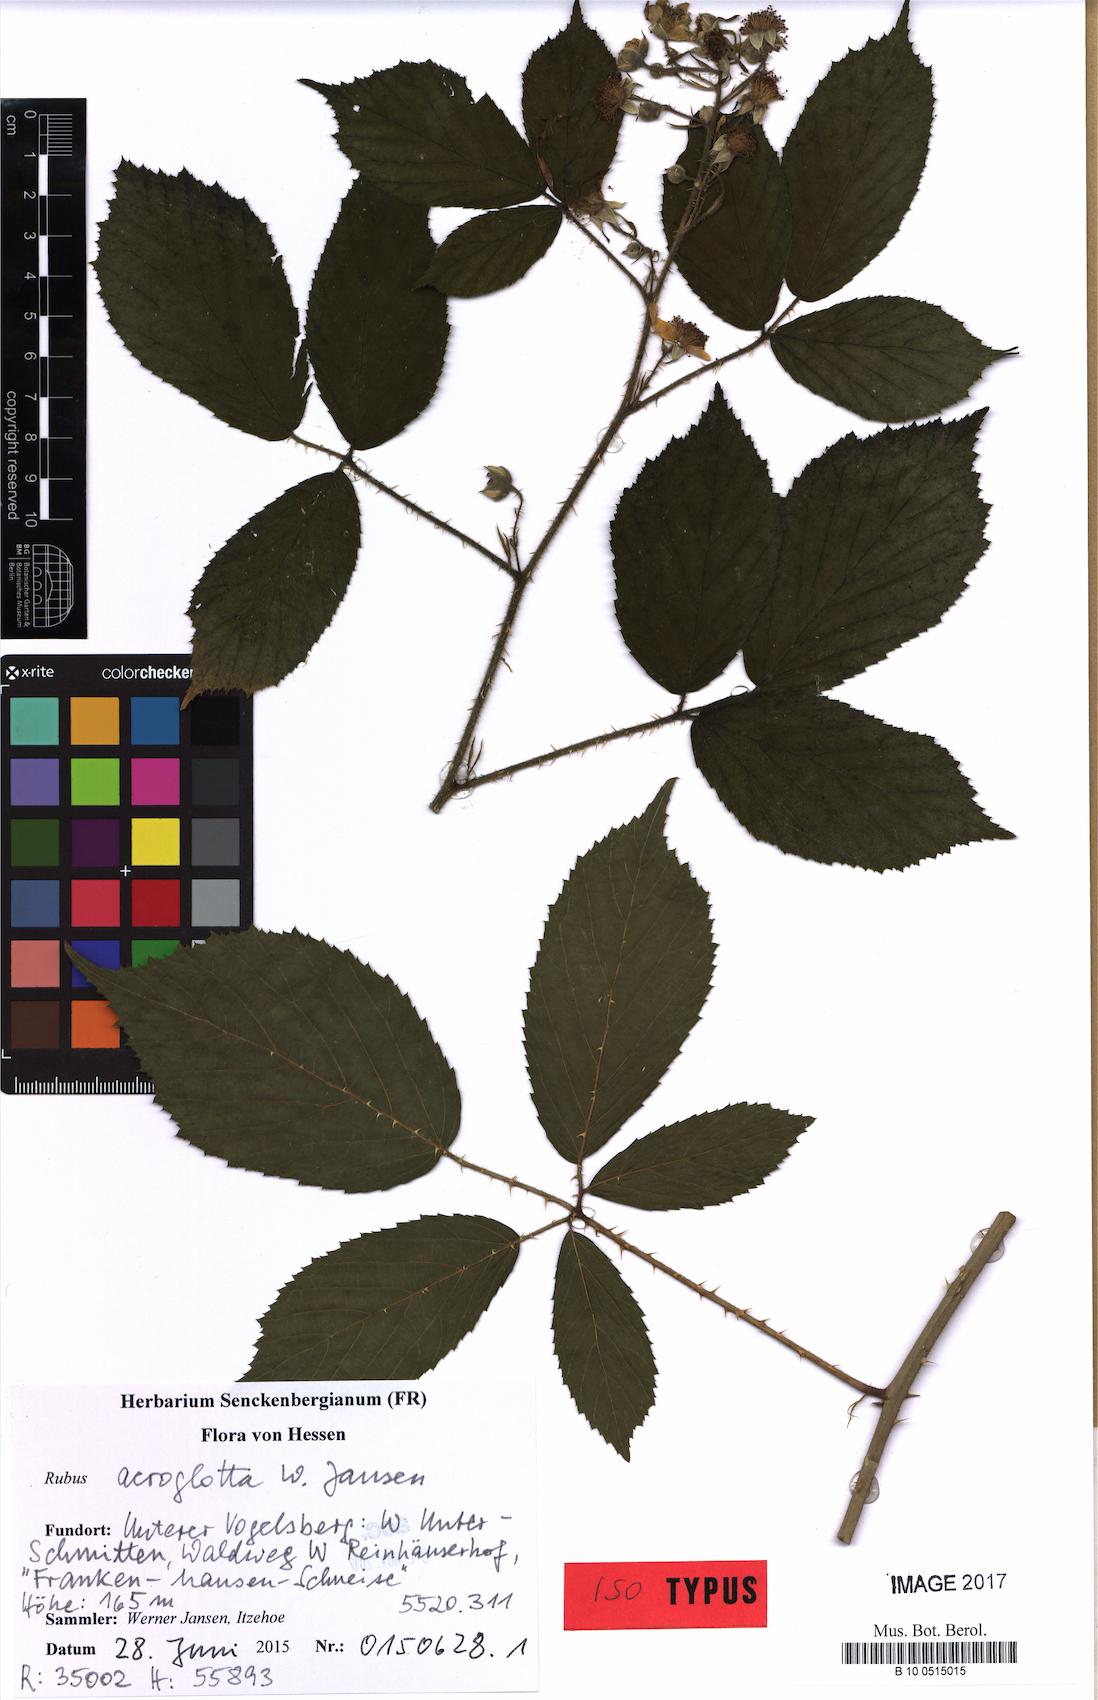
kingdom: Plantae
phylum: Tracheophyta
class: Magnoliopsida
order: Rosales
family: Rosaceae
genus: Rubus
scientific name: Rubus acroglotta
